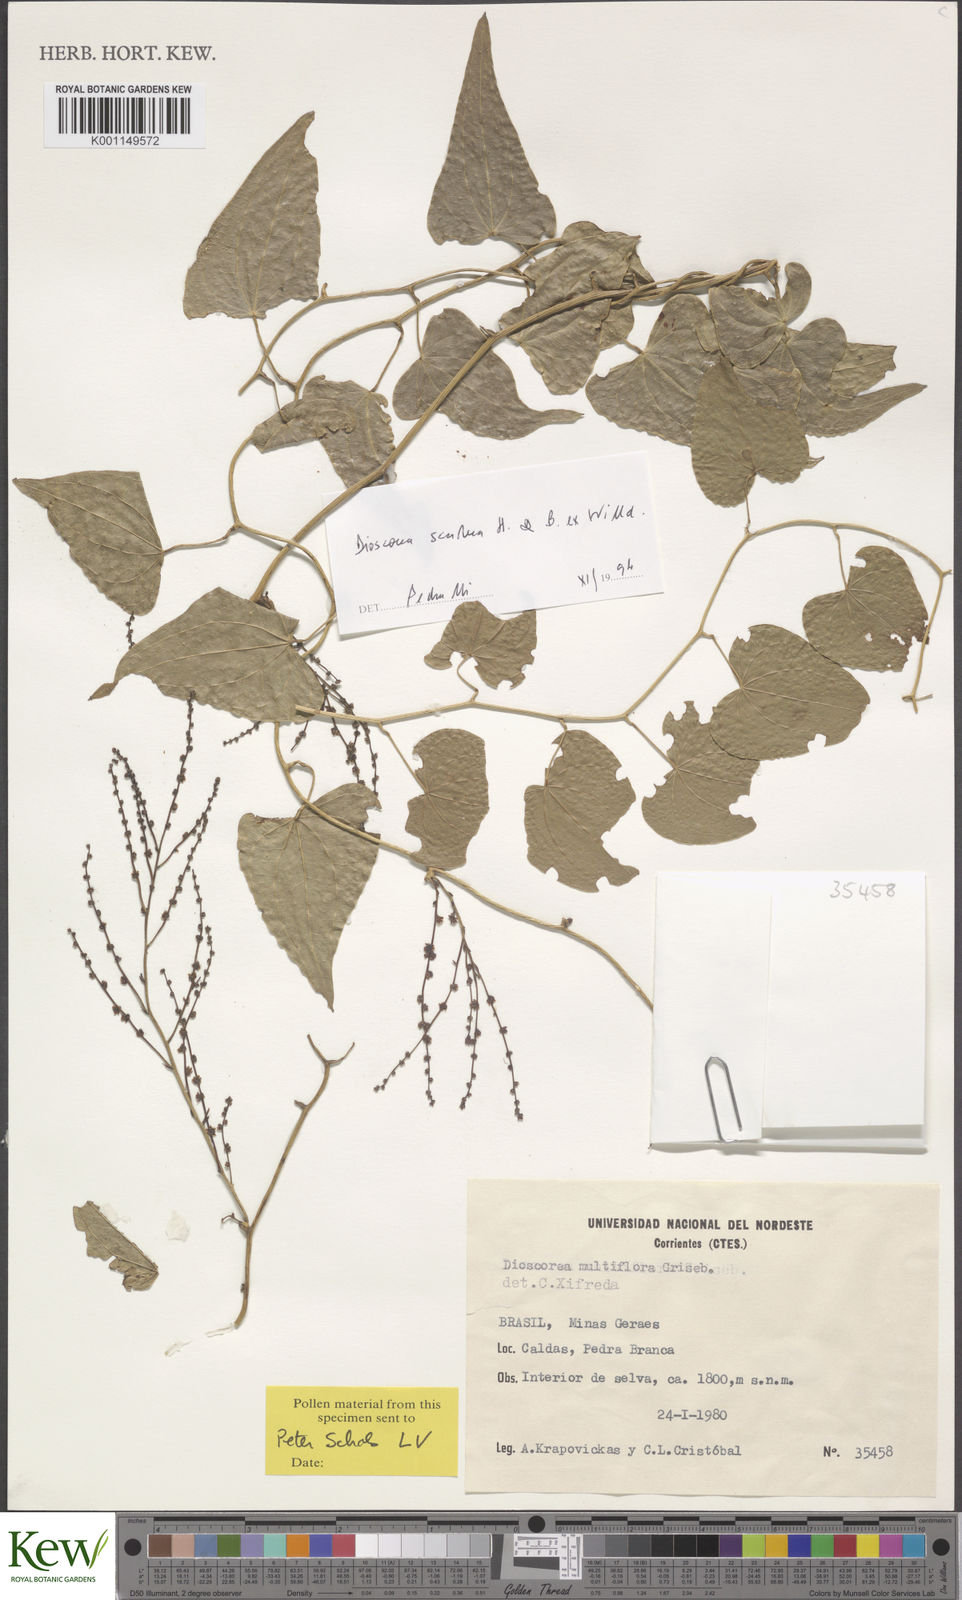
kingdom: Plantae
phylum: Tracheophyta
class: Liliopsida
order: Dioscoreales
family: Dioscoreaceae
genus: Dioscorea
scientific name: Dioscorea multiflora
